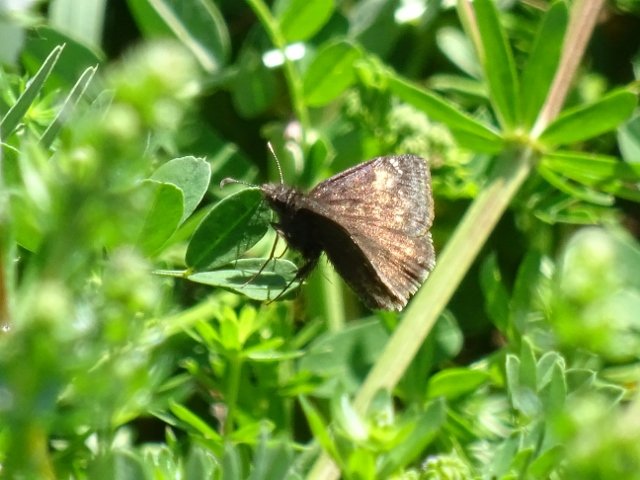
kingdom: Animalia
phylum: Arthropoda
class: Insecta
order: Lepidoptera
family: Hesperiidae
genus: Gesta
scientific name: Gesta
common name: Columbine Duskywing
